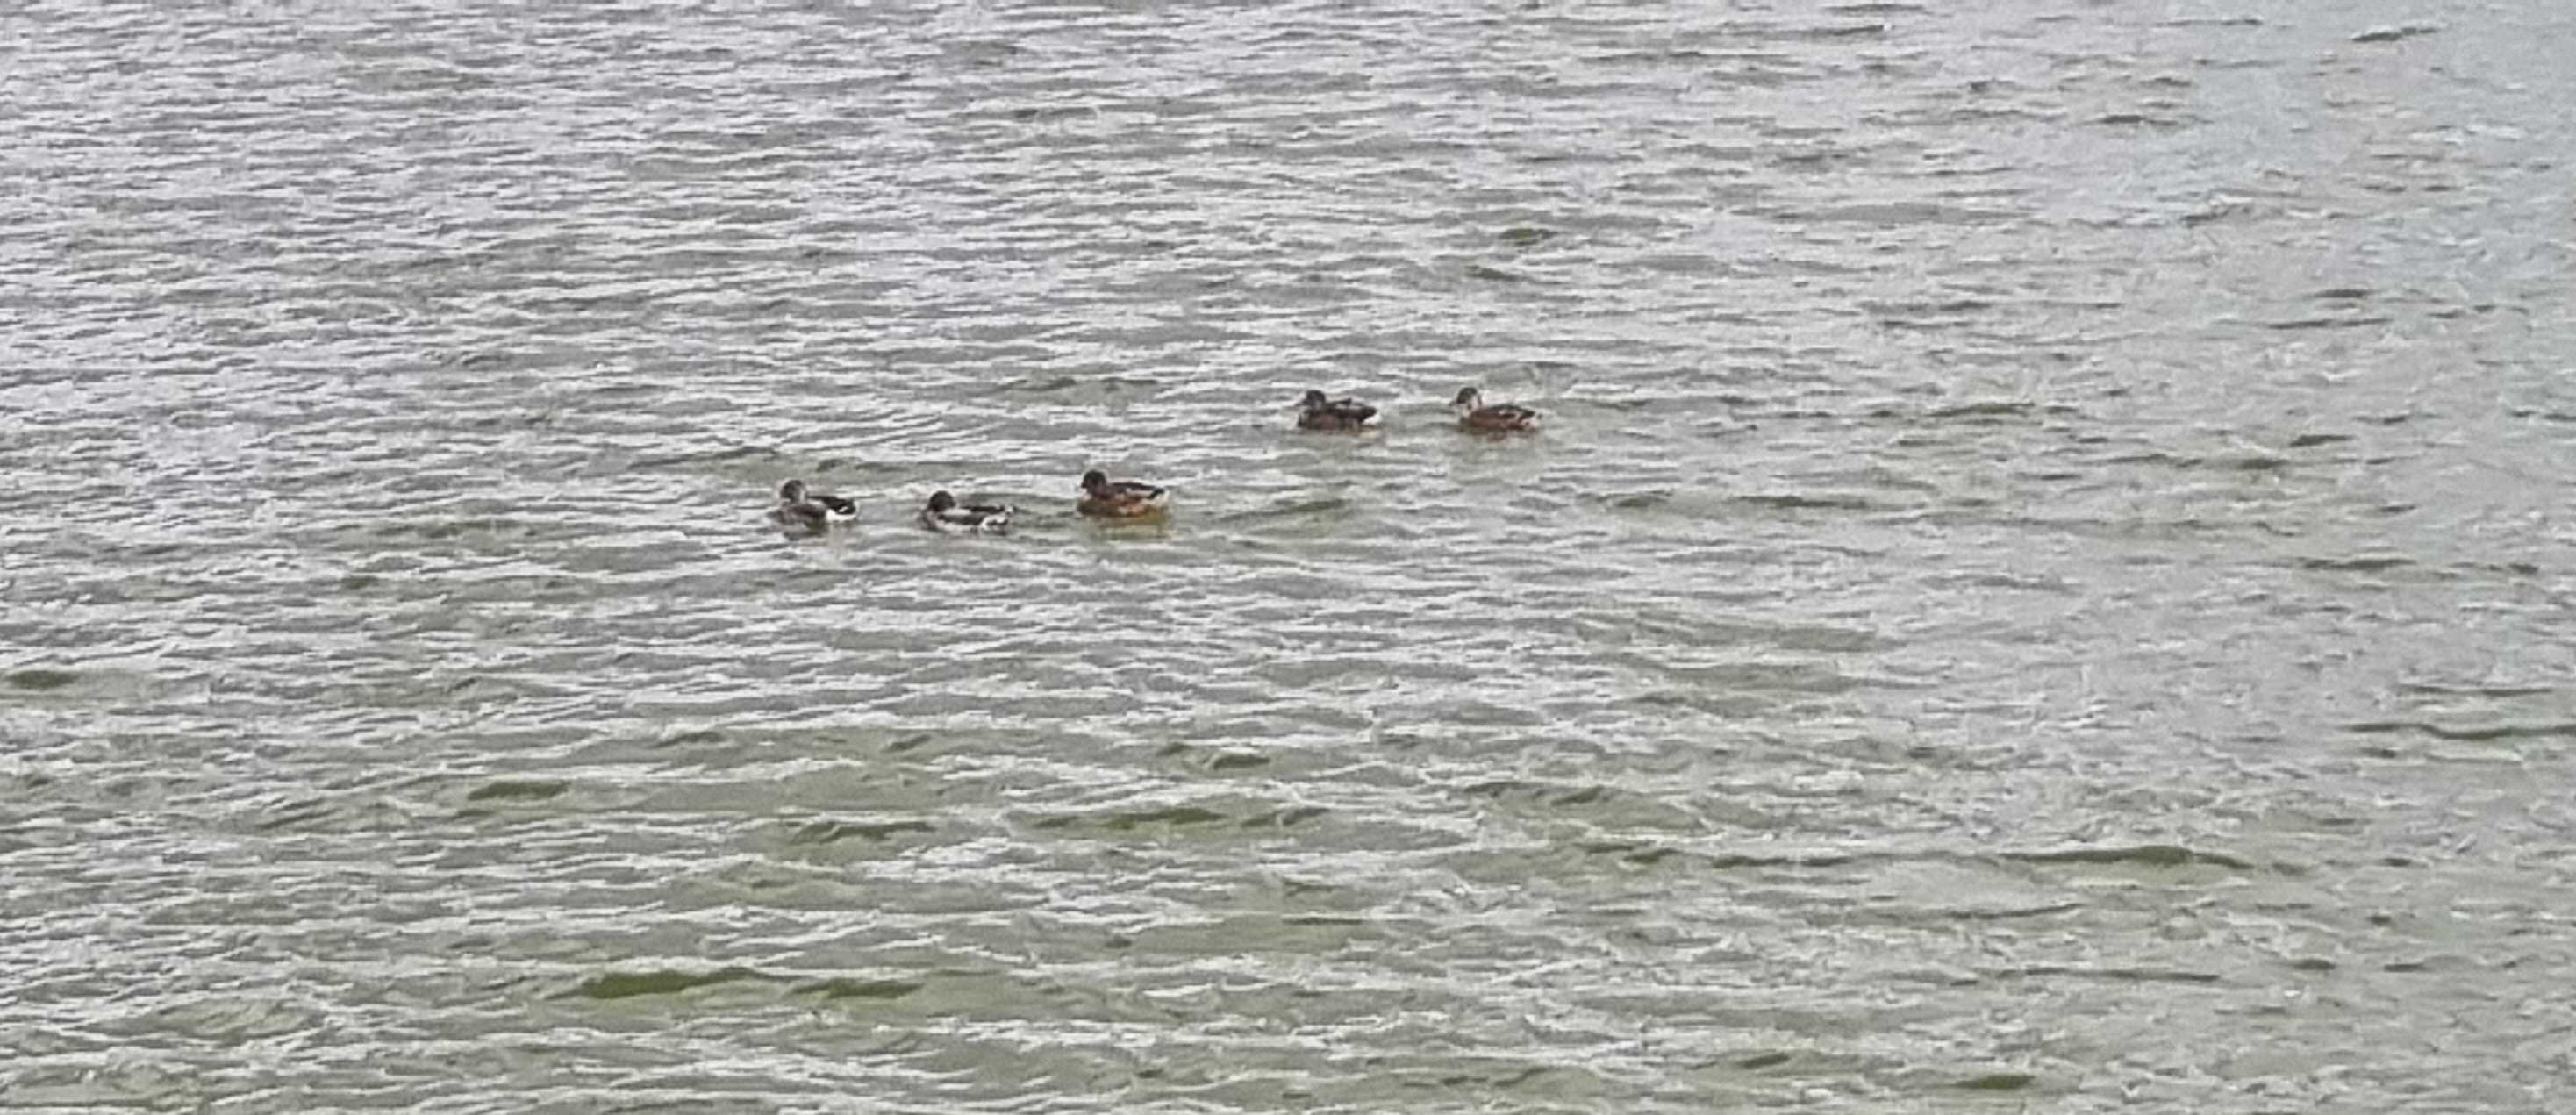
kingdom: Animalia
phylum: Chordata
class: Aves
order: Anseriformes
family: Anatidae
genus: Anas
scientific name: Anas platyrhynchos
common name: Gråand
